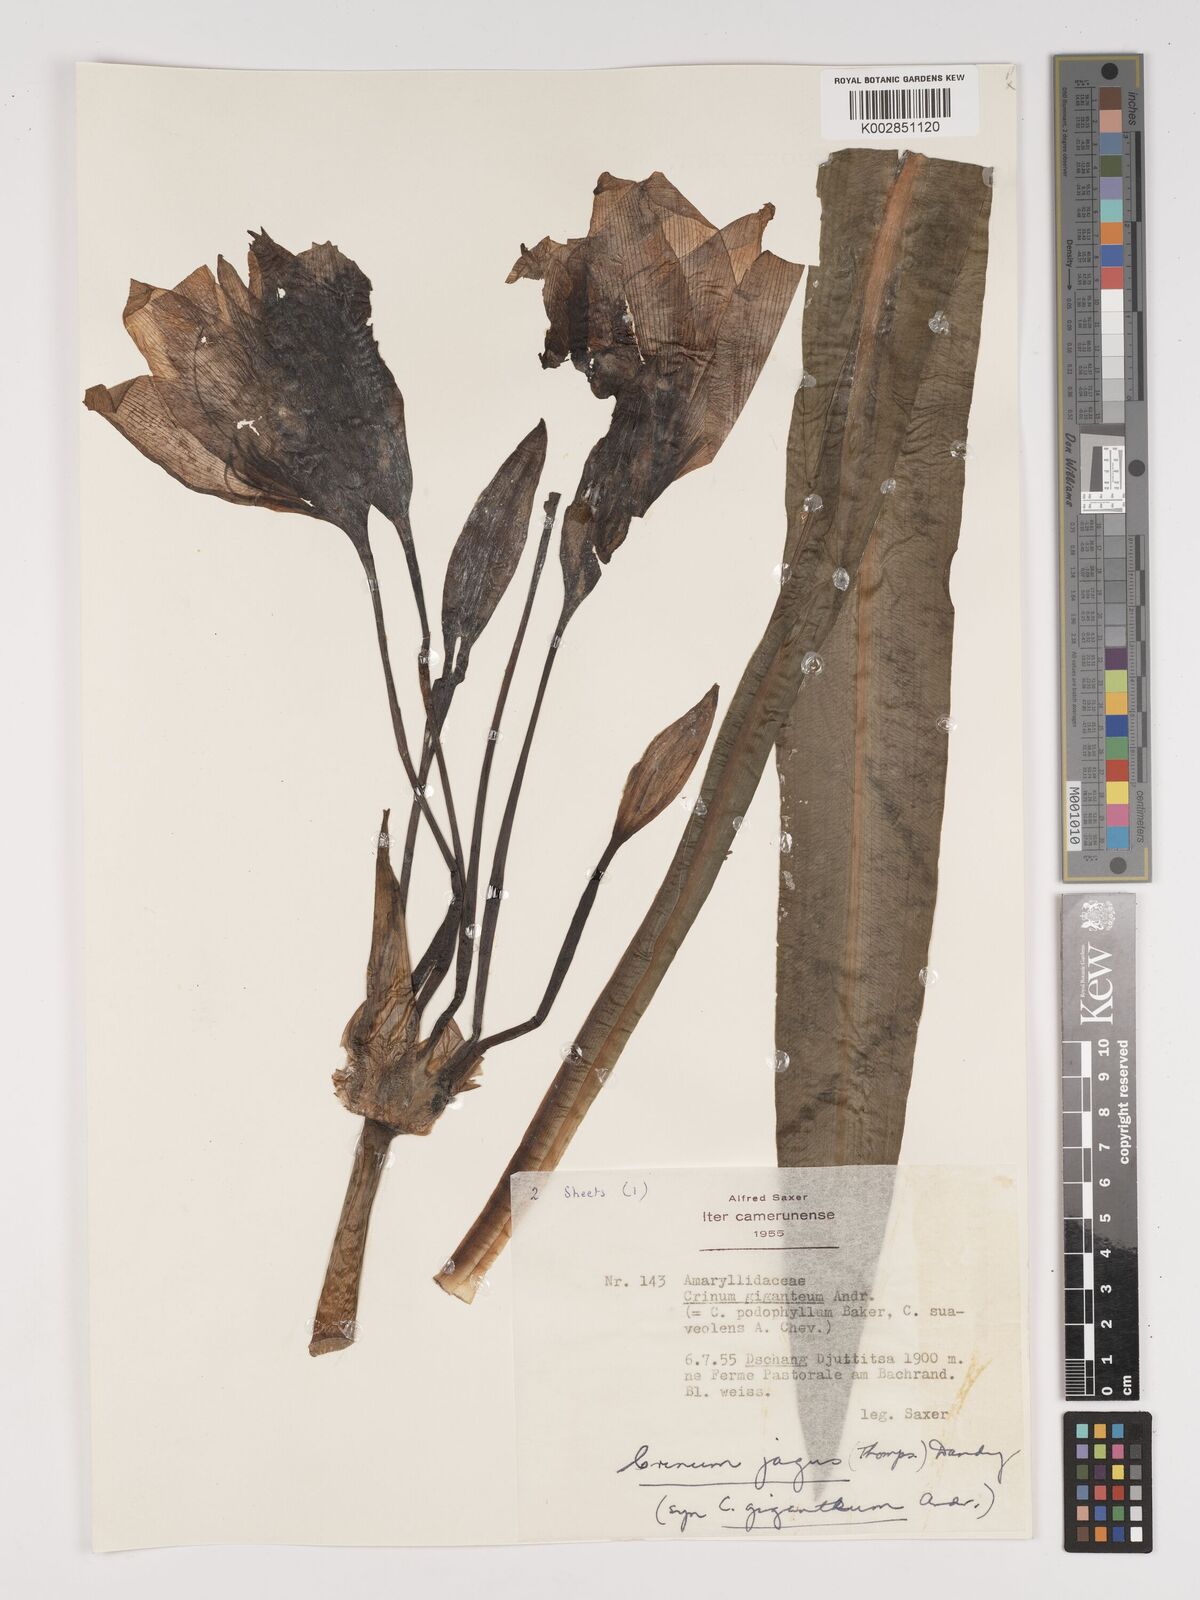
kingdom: Plantae
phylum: Tracheophyta
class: Liliopsida
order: Asparagales
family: Amaryllidaceae
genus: Crinum
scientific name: Crinum jagus
